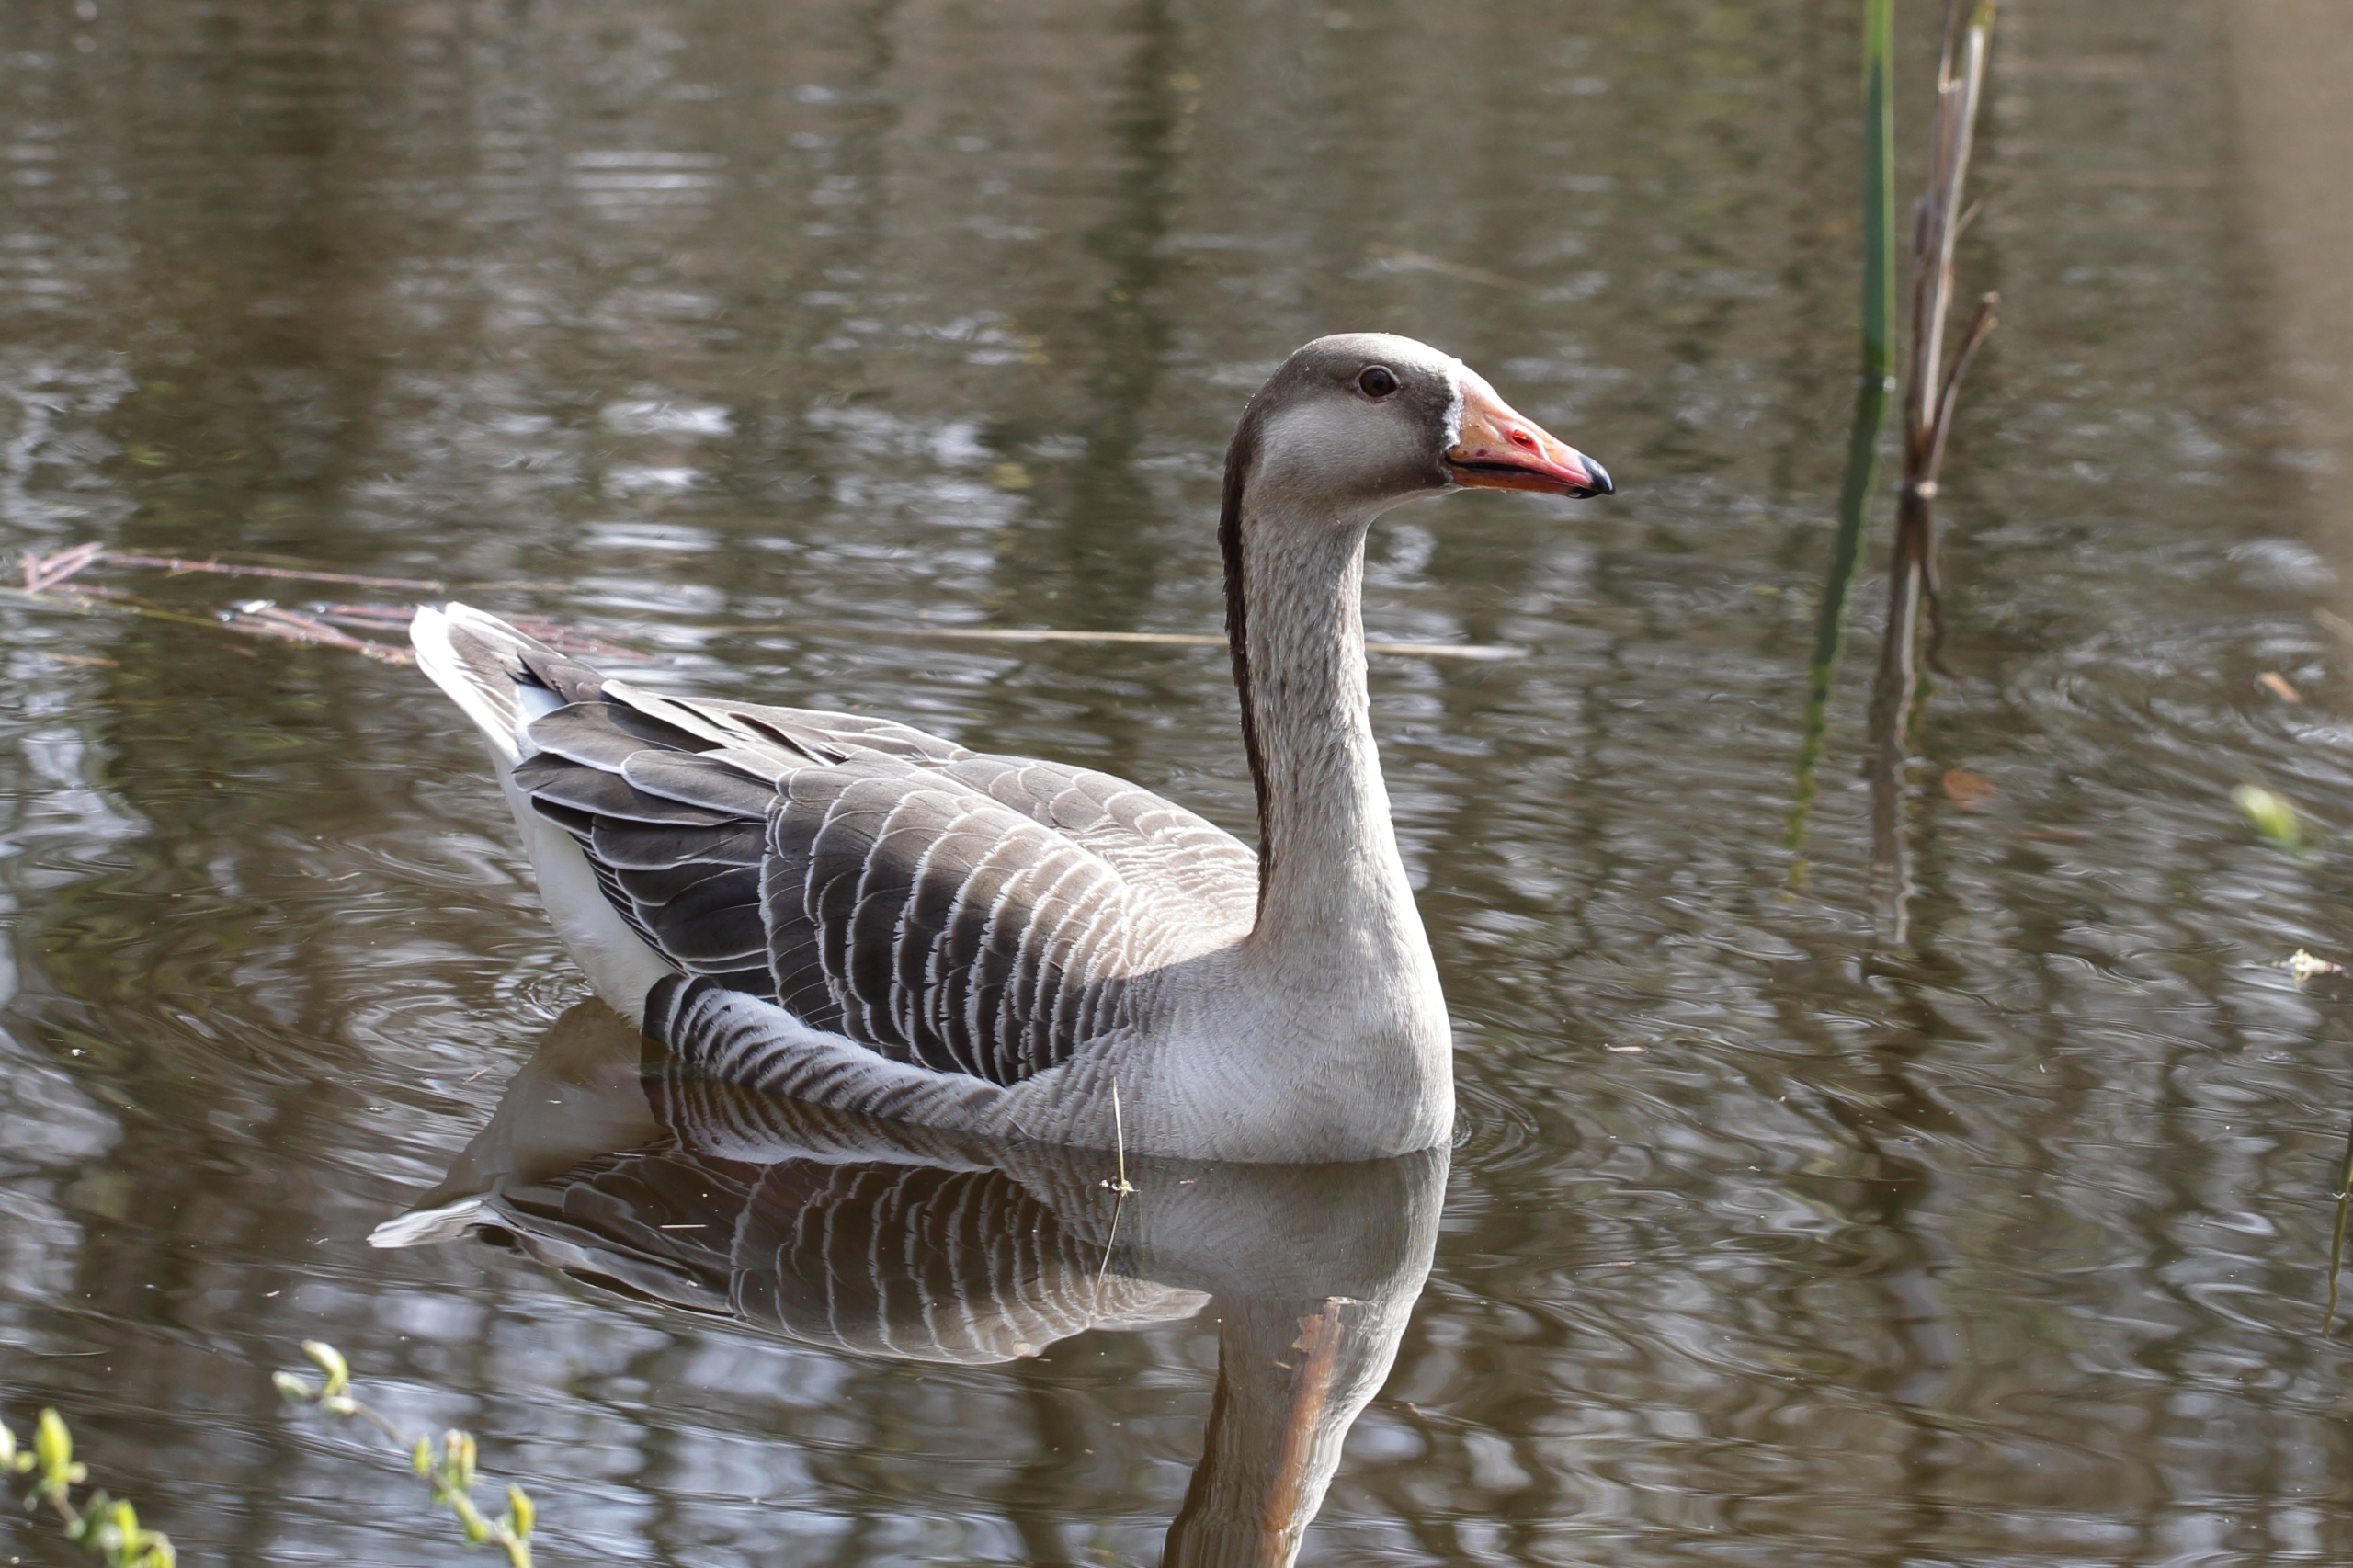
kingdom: Animalia
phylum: Chordata
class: Aves
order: Anseriformes
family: Anatidae
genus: Anser
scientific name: Anser anser
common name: Grågås
